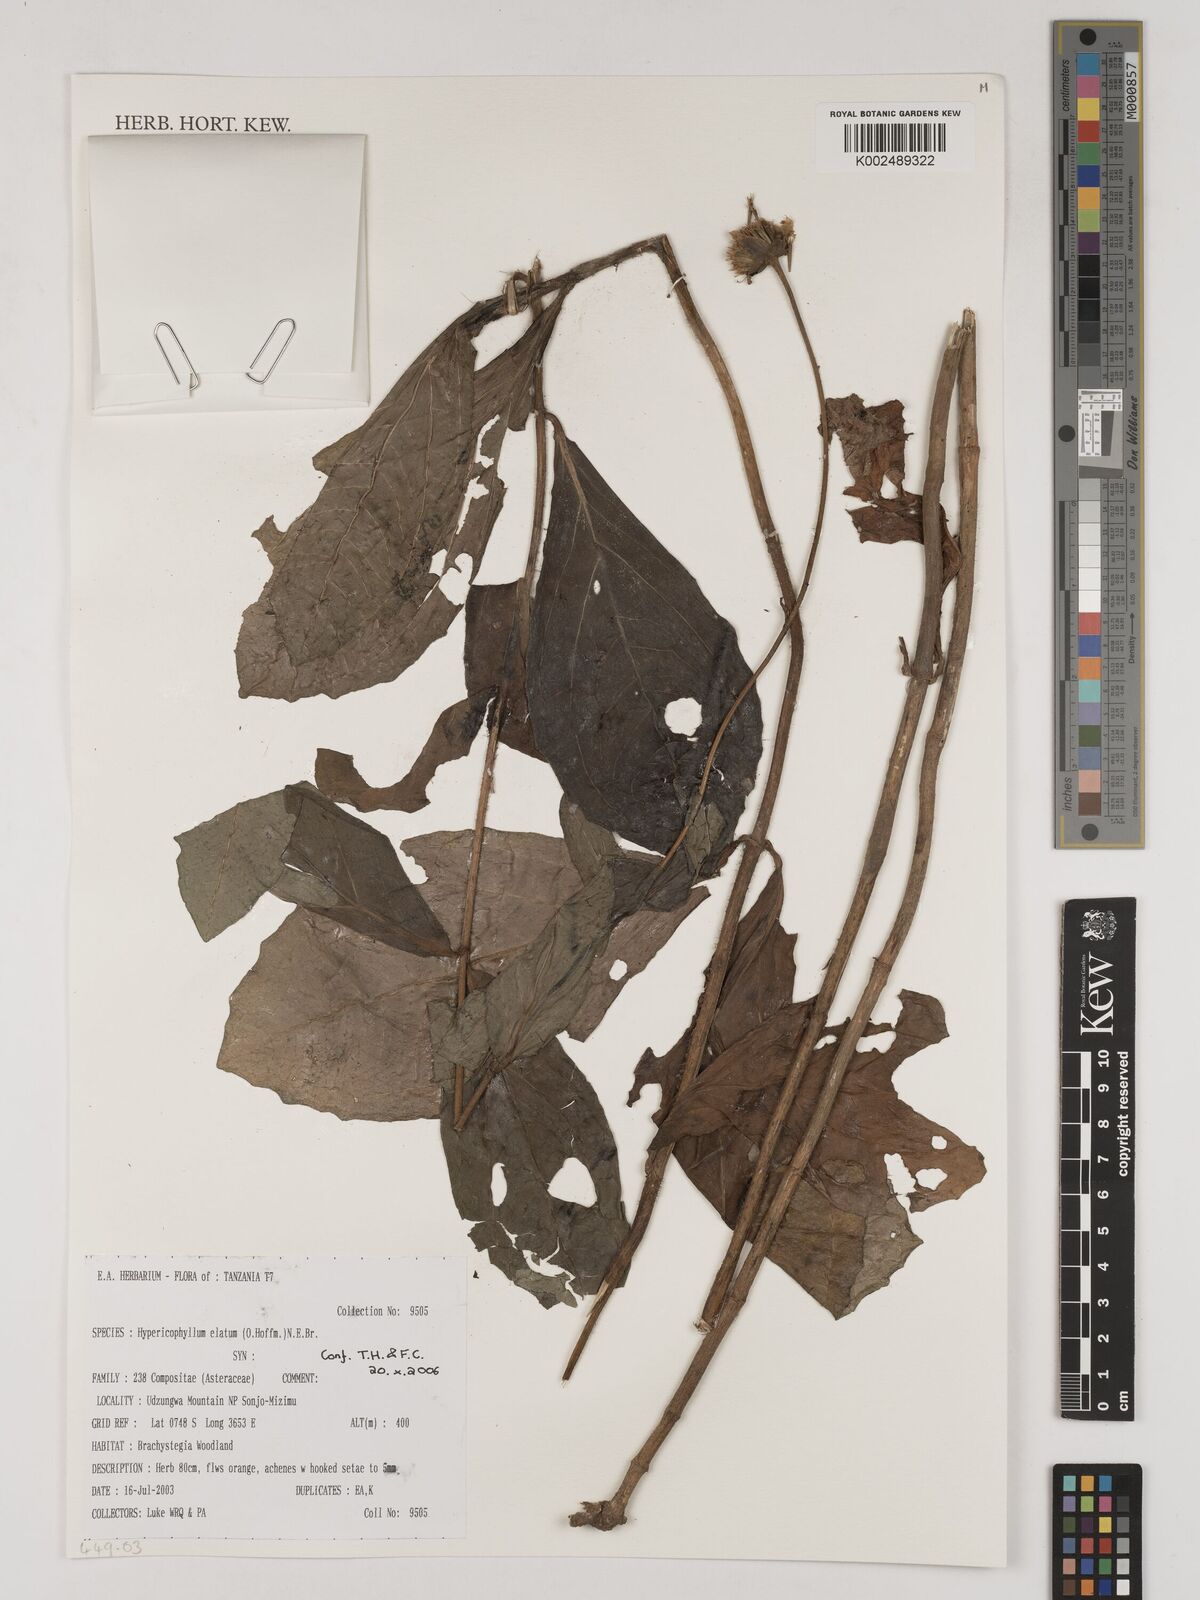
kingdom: Plantae
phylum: Tracheophyta
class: Magnoliopsida
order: Asterales
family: Asteraceae
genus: Hypericophyllum
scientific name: Hypericophyllum elatum
